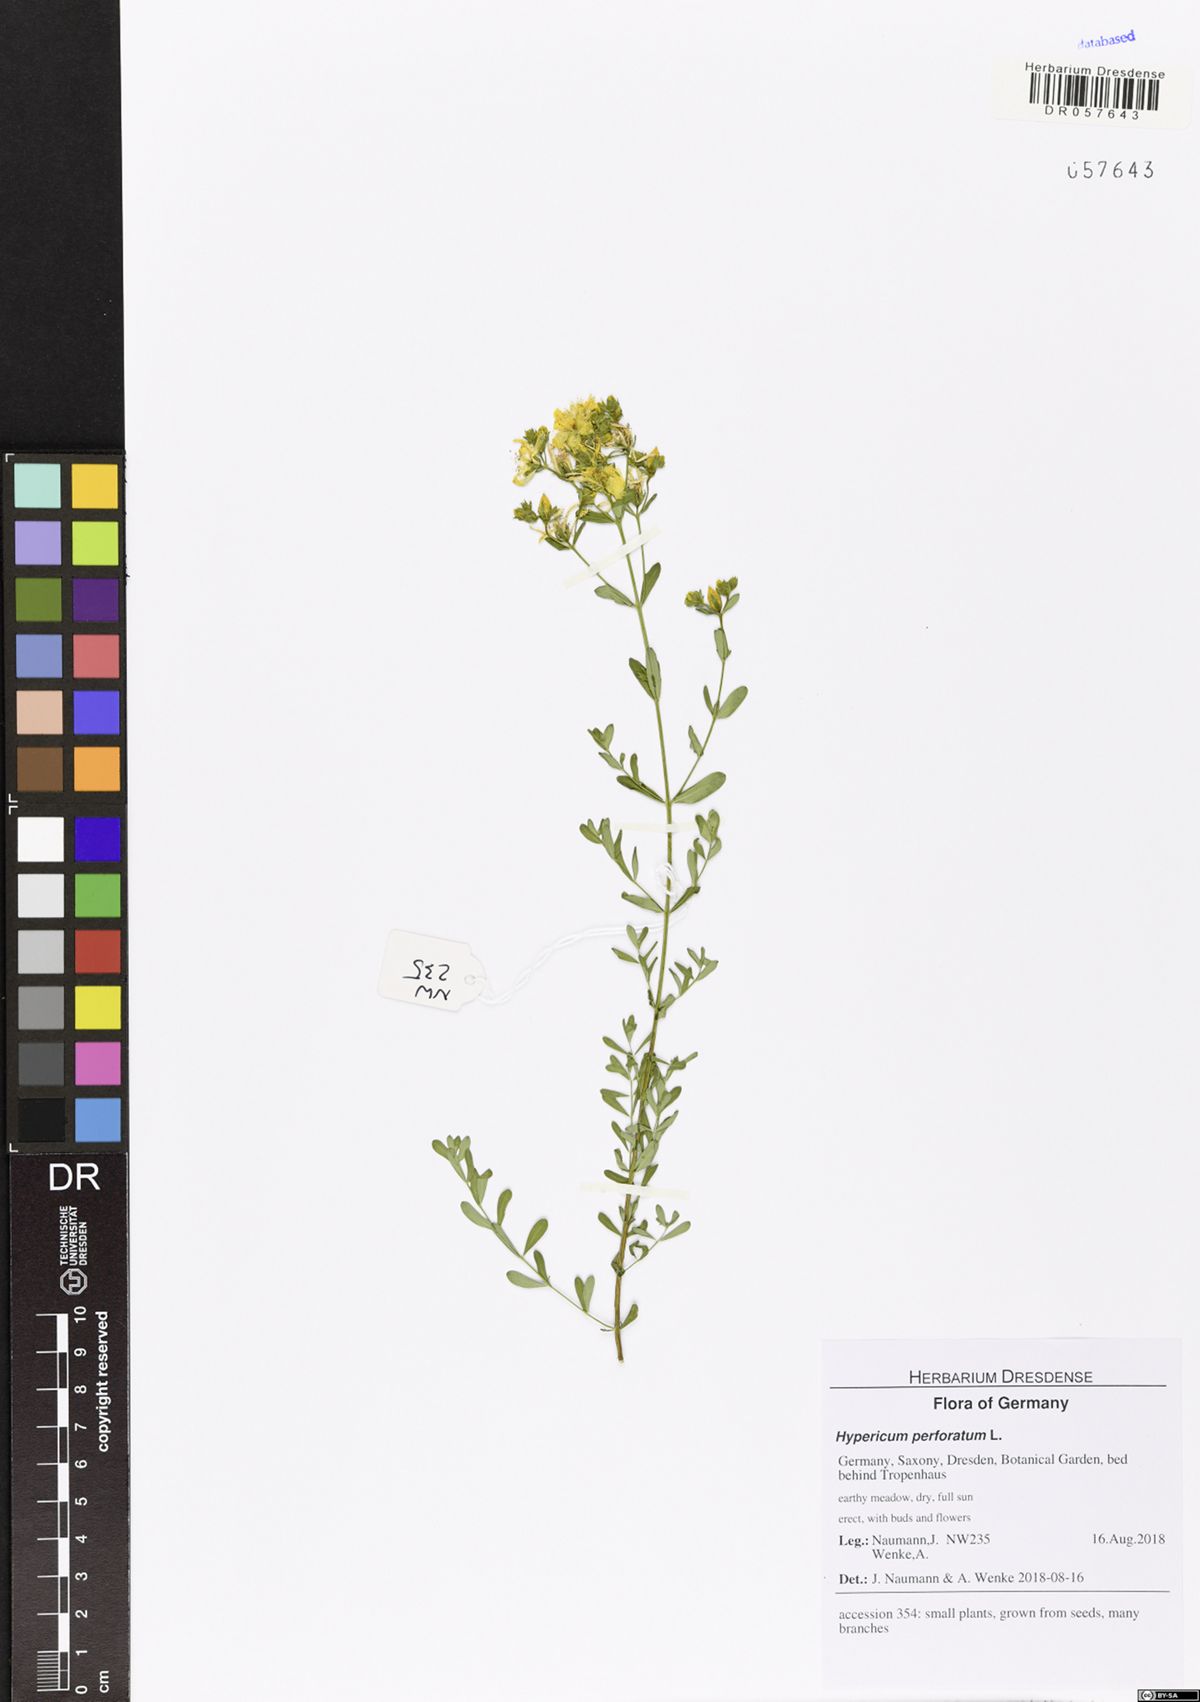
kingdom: Plantae
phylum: Tracheophyta
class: Magnoliopsida
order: Malpighiales
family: Hypericaceae
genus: Hypericum
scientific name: Hypericum perforatum
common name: Common st. johnswort
